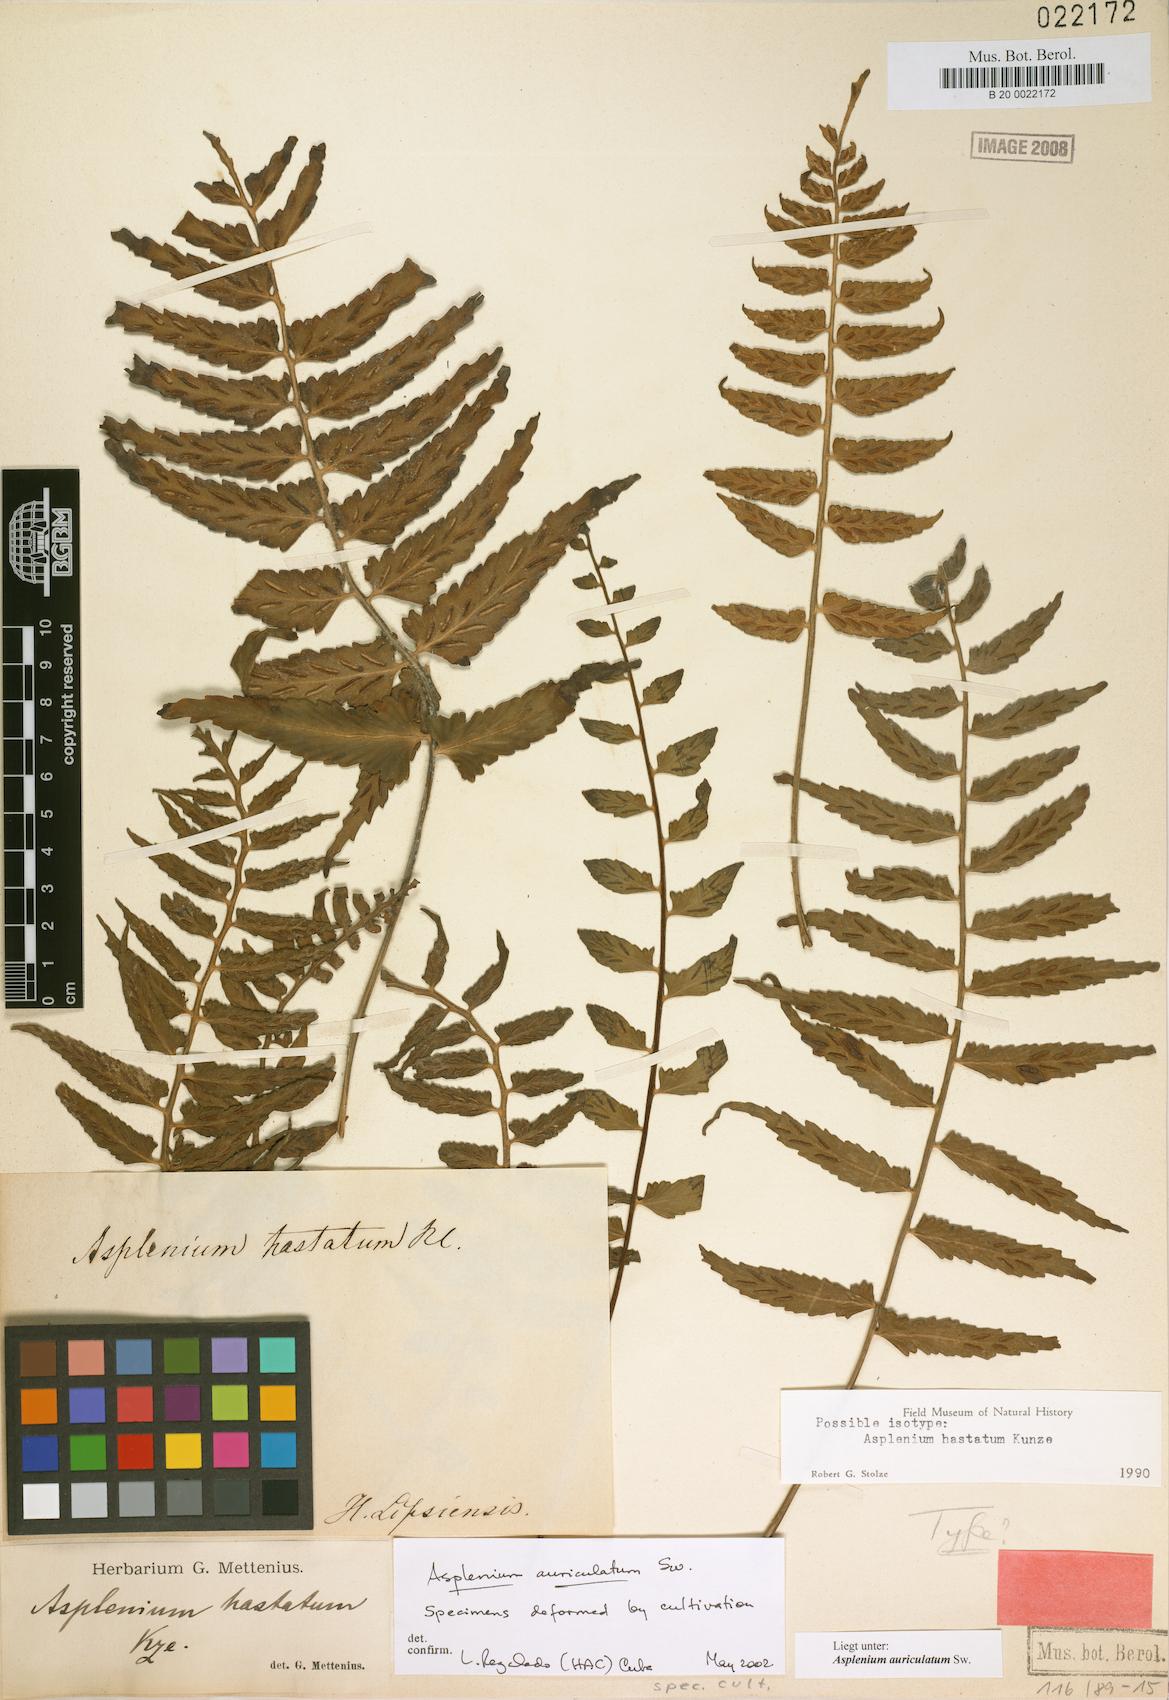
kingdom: Plantae
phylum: Tracheophyta
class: Polypodiopsida
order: Polypodiales
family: Aspleniaceae
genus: Asplenium
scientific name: Asplenium hastatum
